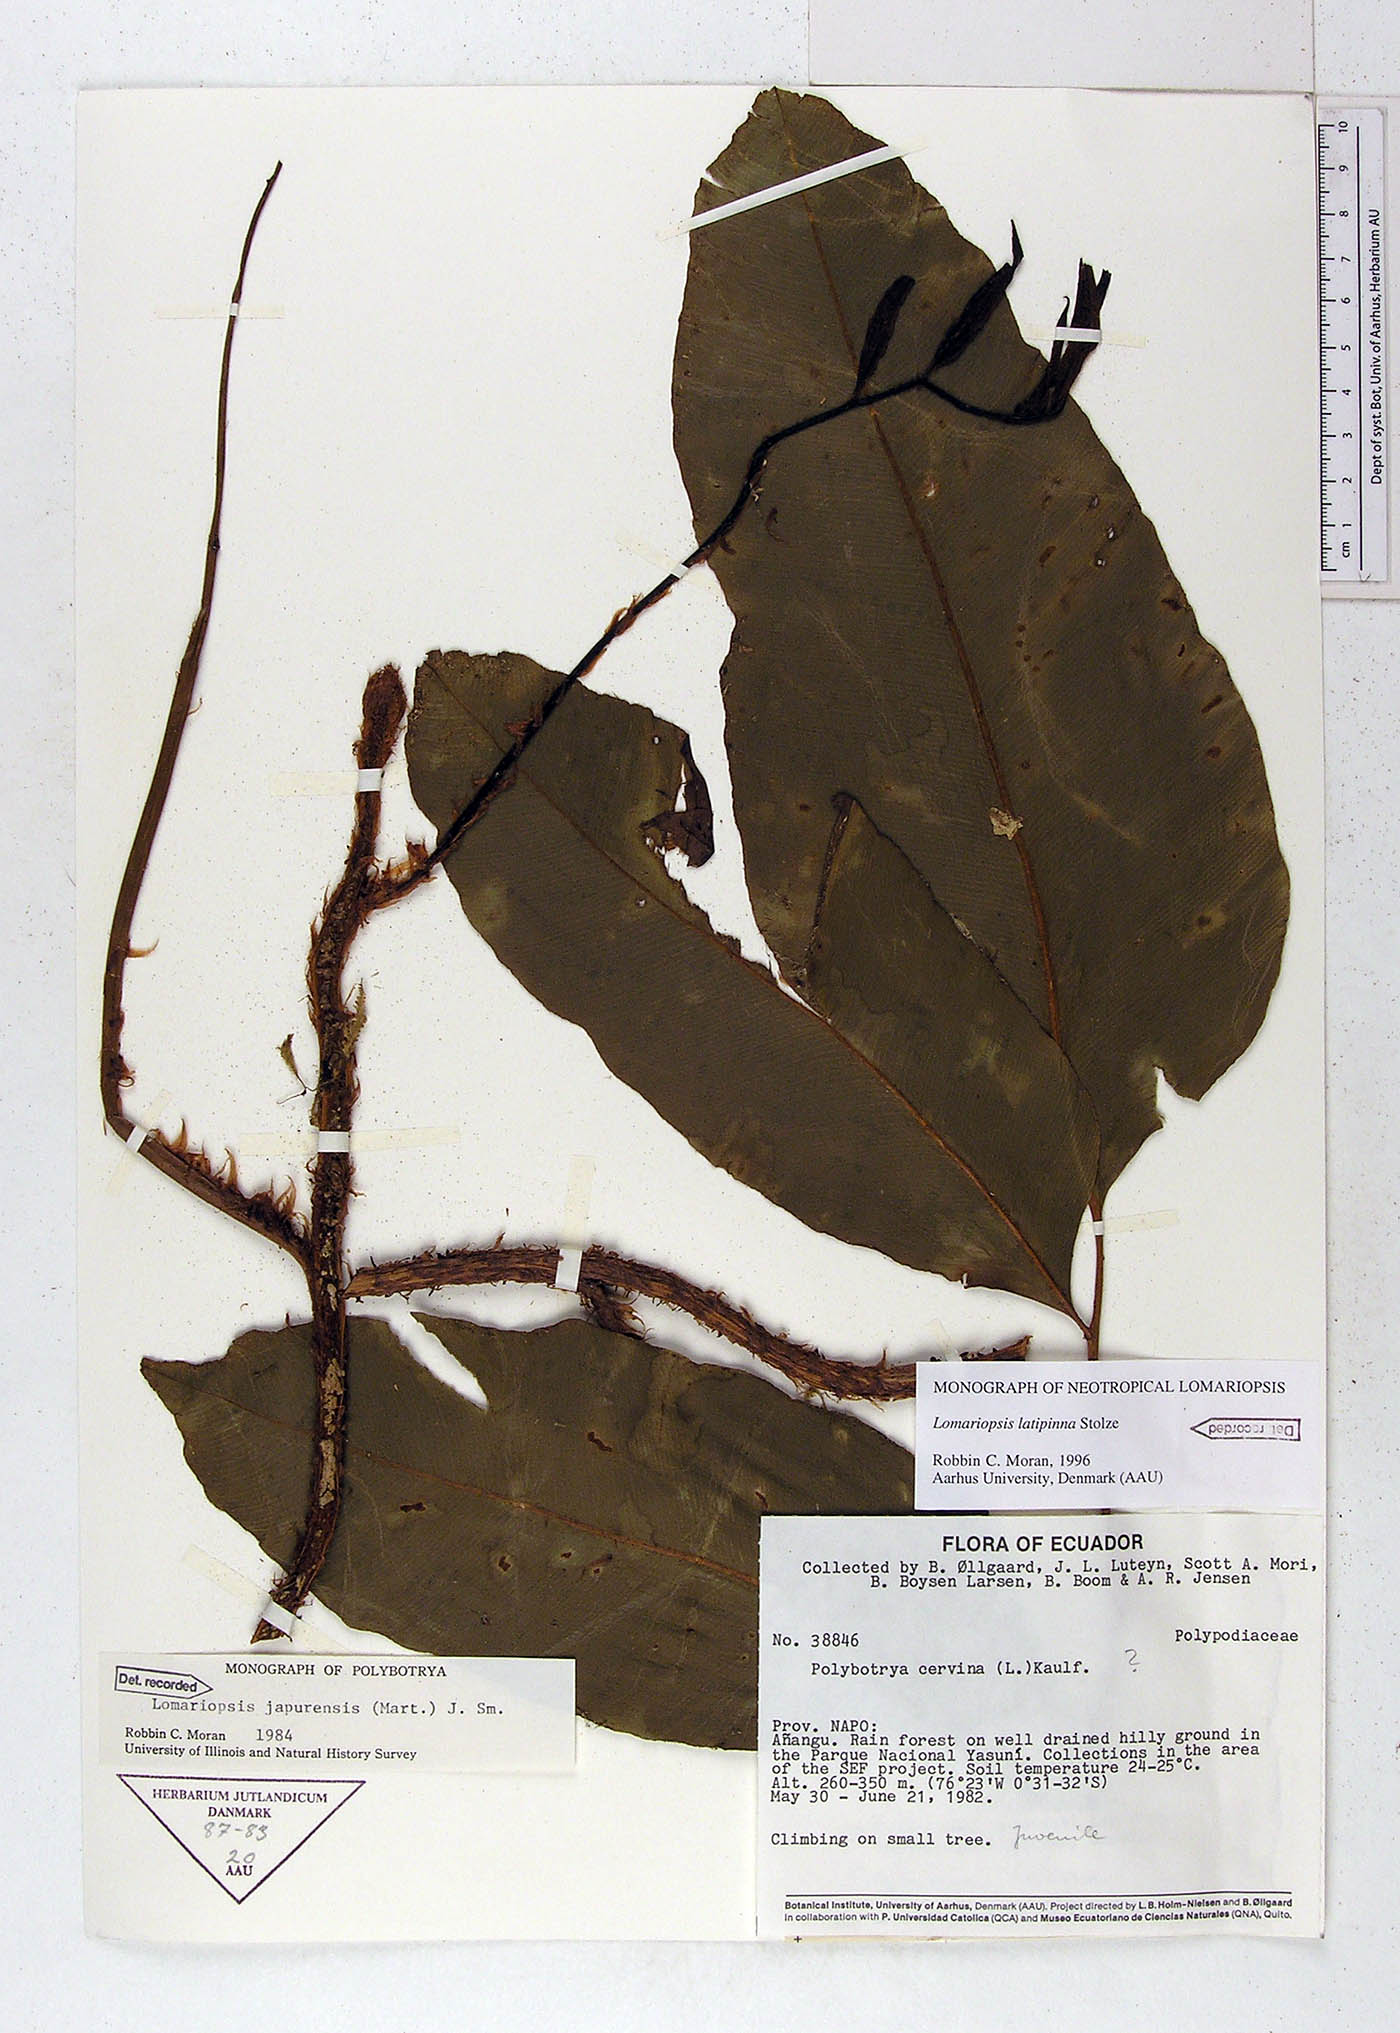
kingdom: Plantae
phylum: Tracheophyta
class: Polypodiopsida
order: Polypodiales
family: Lomariopsidaceae
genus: Lomariopsis
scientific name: Lomariopsis latipinna
